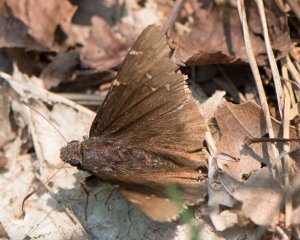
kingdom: Animalia
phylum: Arthropoda
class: Insecta
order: Lepidoptera
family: Hesperiidae
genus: Autochton
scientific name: Autochton
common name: Northern Cloudywing
